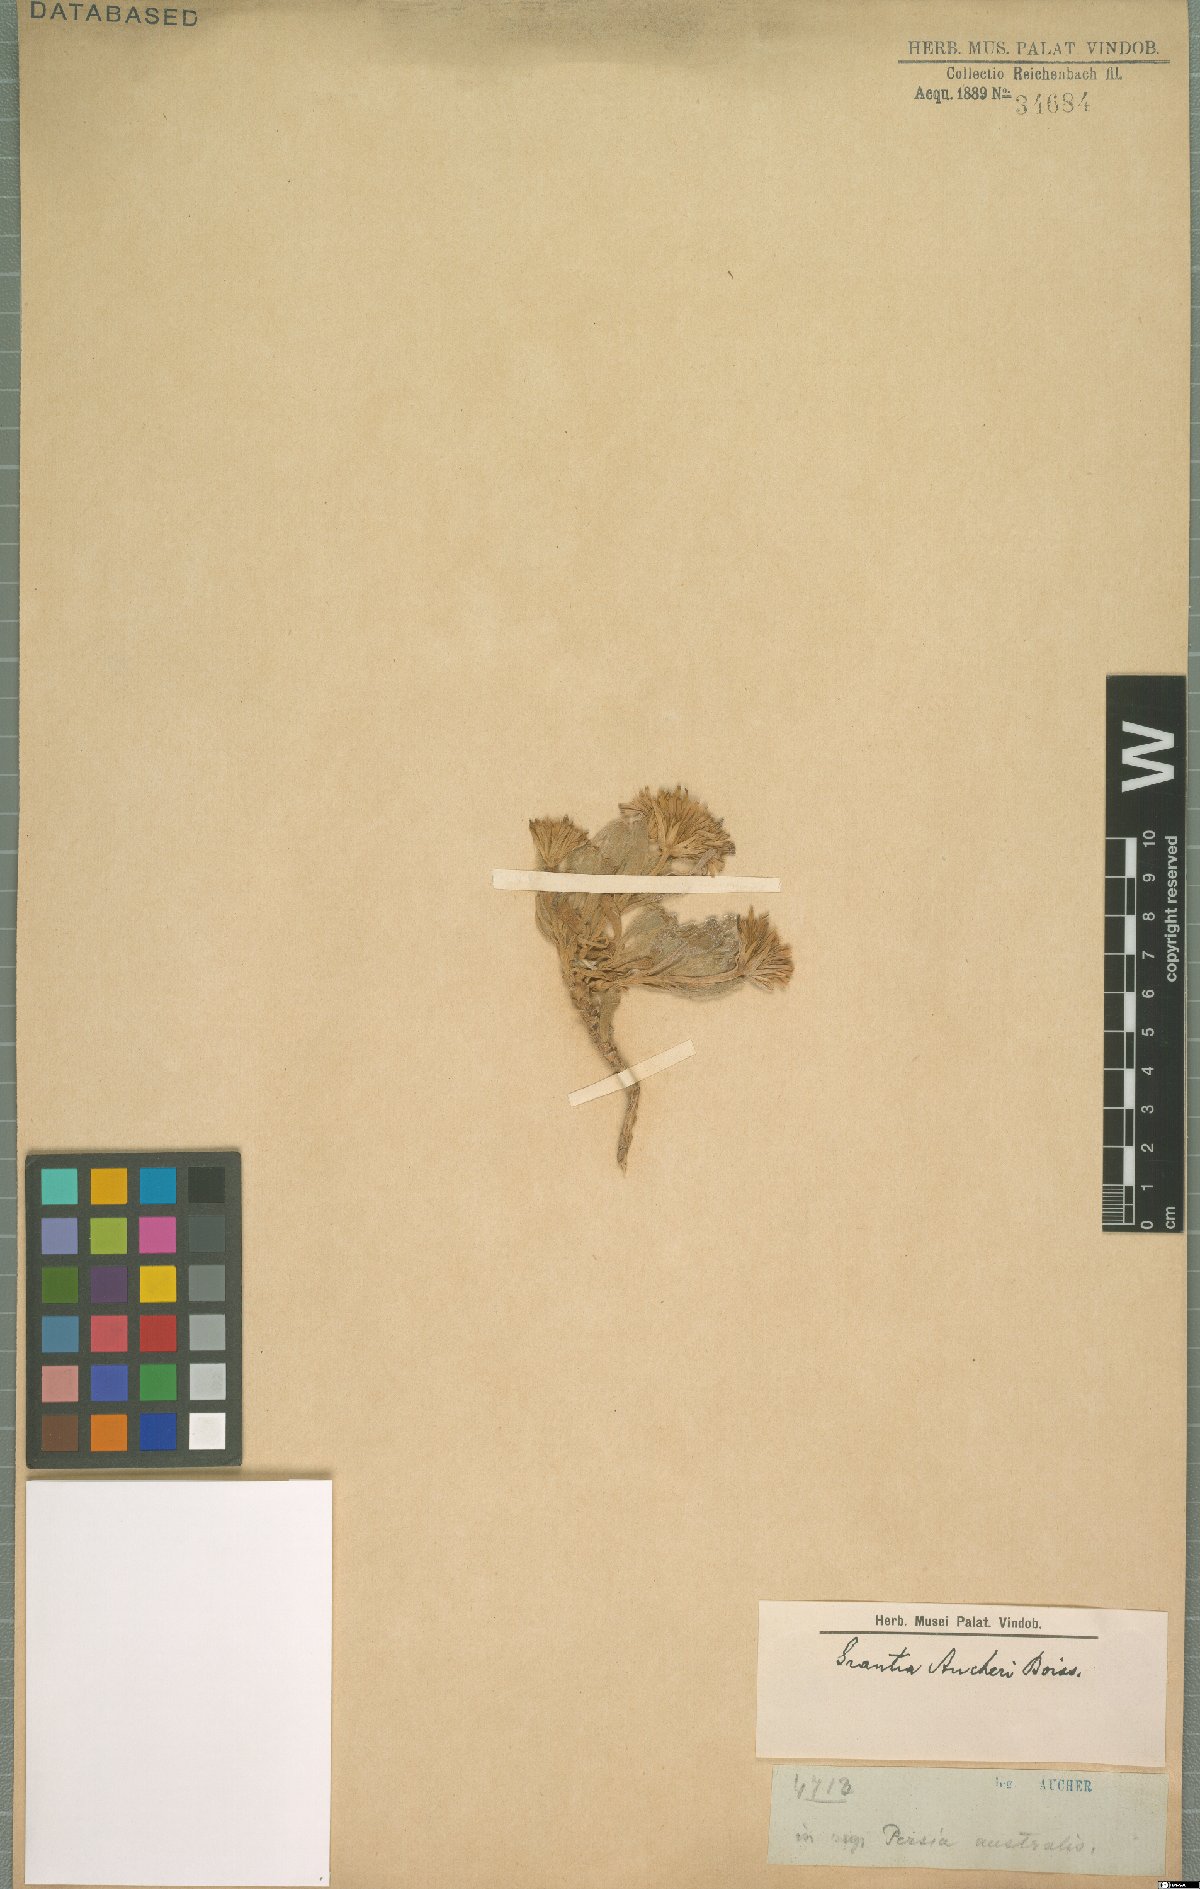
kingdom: Plantae
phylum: Tracheophyta
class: Magnoliopsida
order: Asterales
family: Asteraceae
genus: Iphiona
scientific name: Iphiona aucheri
